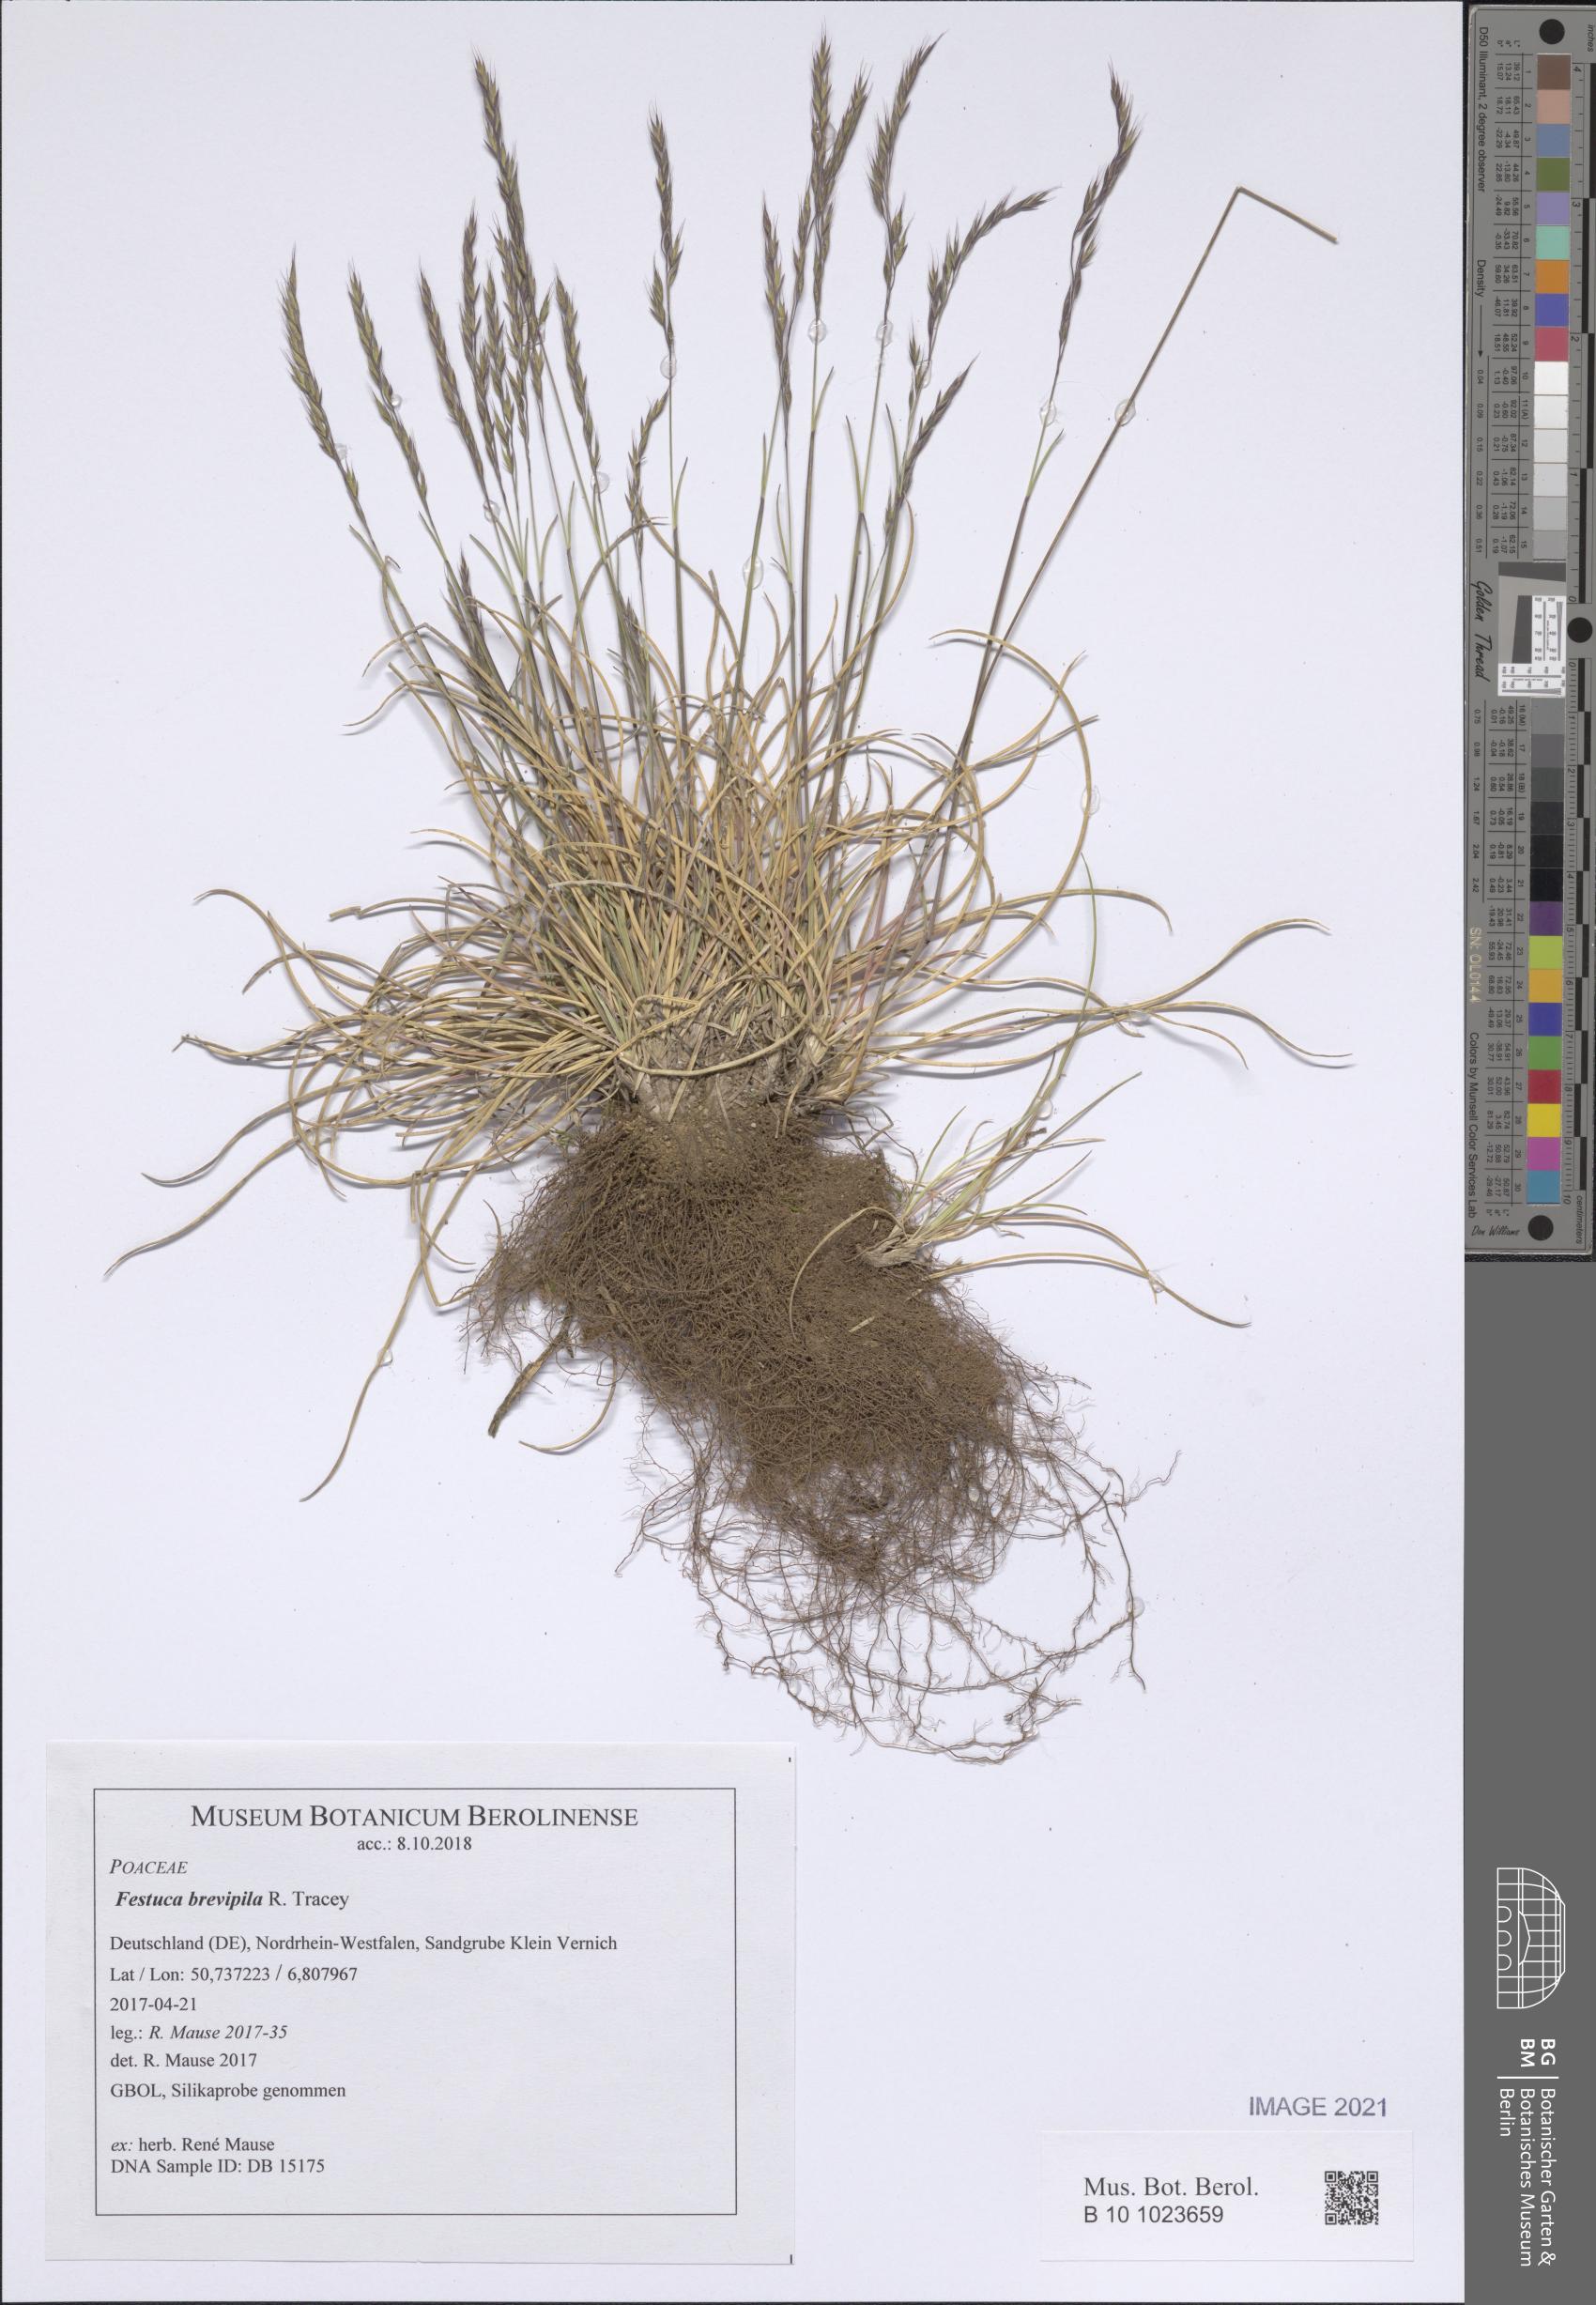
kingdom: Plantae
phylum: Tracheophyta
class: Liliopsida
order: Poales
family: Poaceae
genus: Festuca
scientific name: Festuca trachyphylla
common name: Hard fescue
